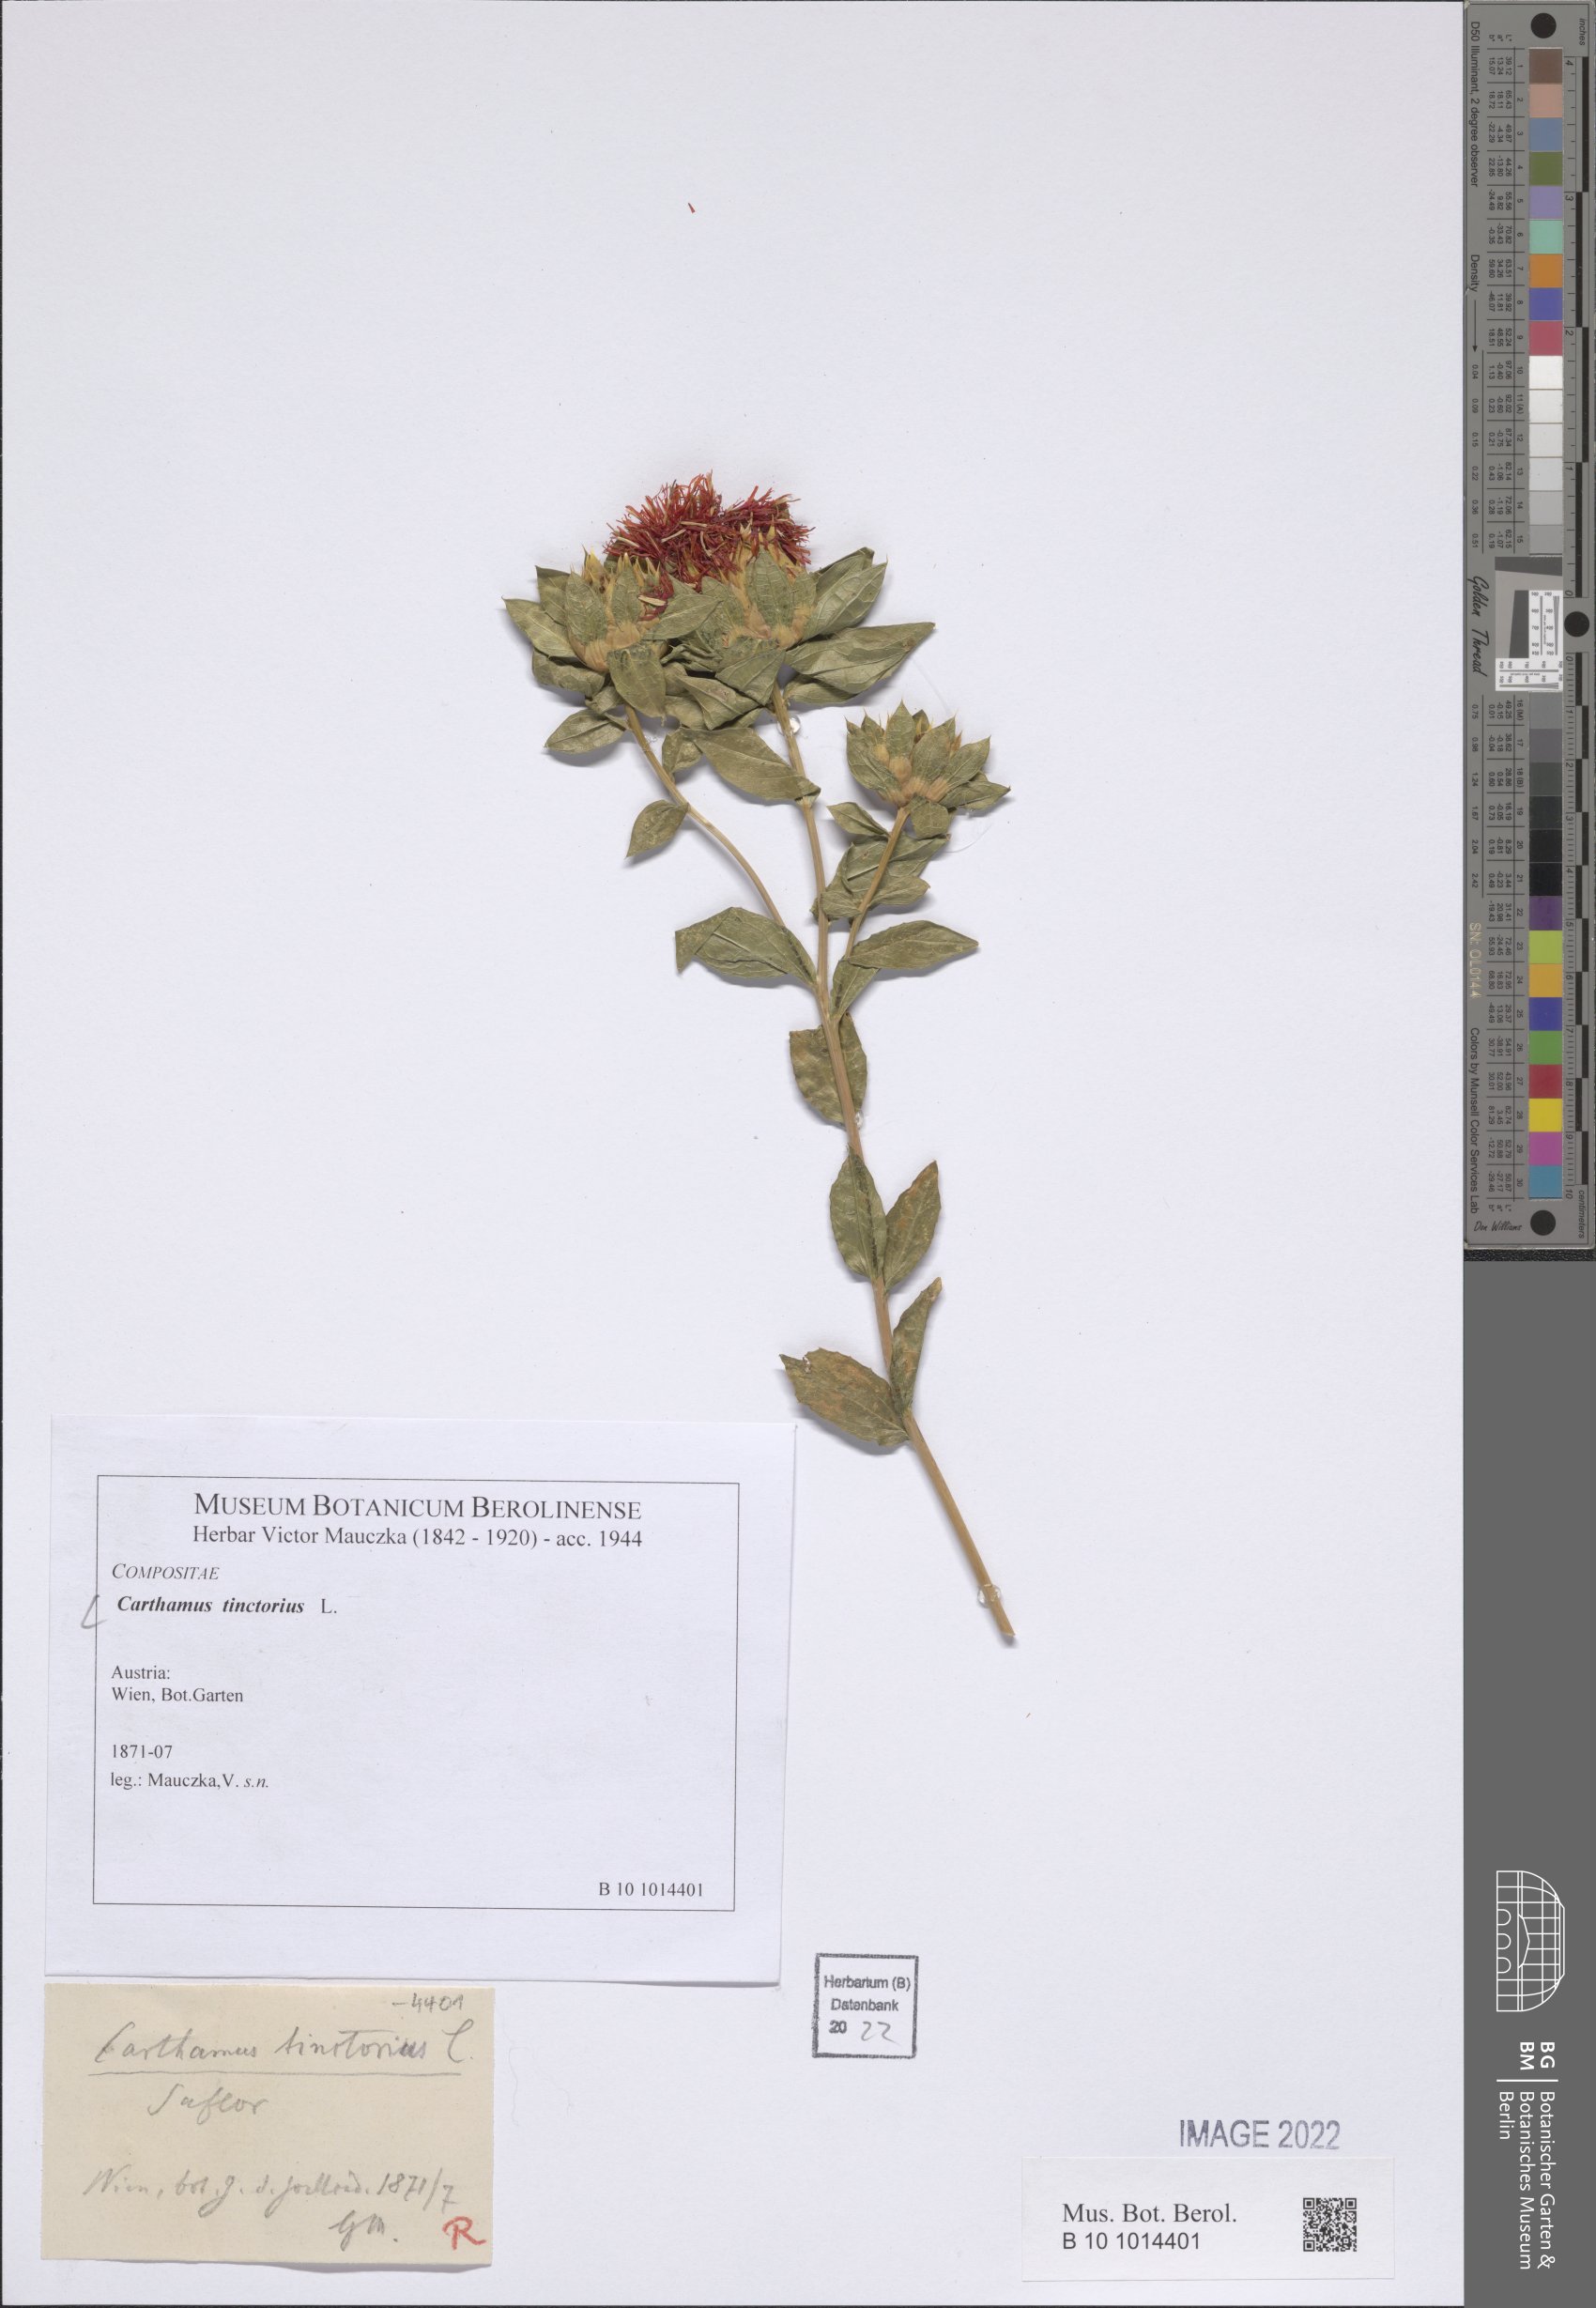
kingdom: Plantae
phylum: Tracheophyta
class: Magnoliopsida
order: Asterales
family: Asteraceae
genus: Carthamus
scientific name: Carthamus tinctorius
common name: Safflower
